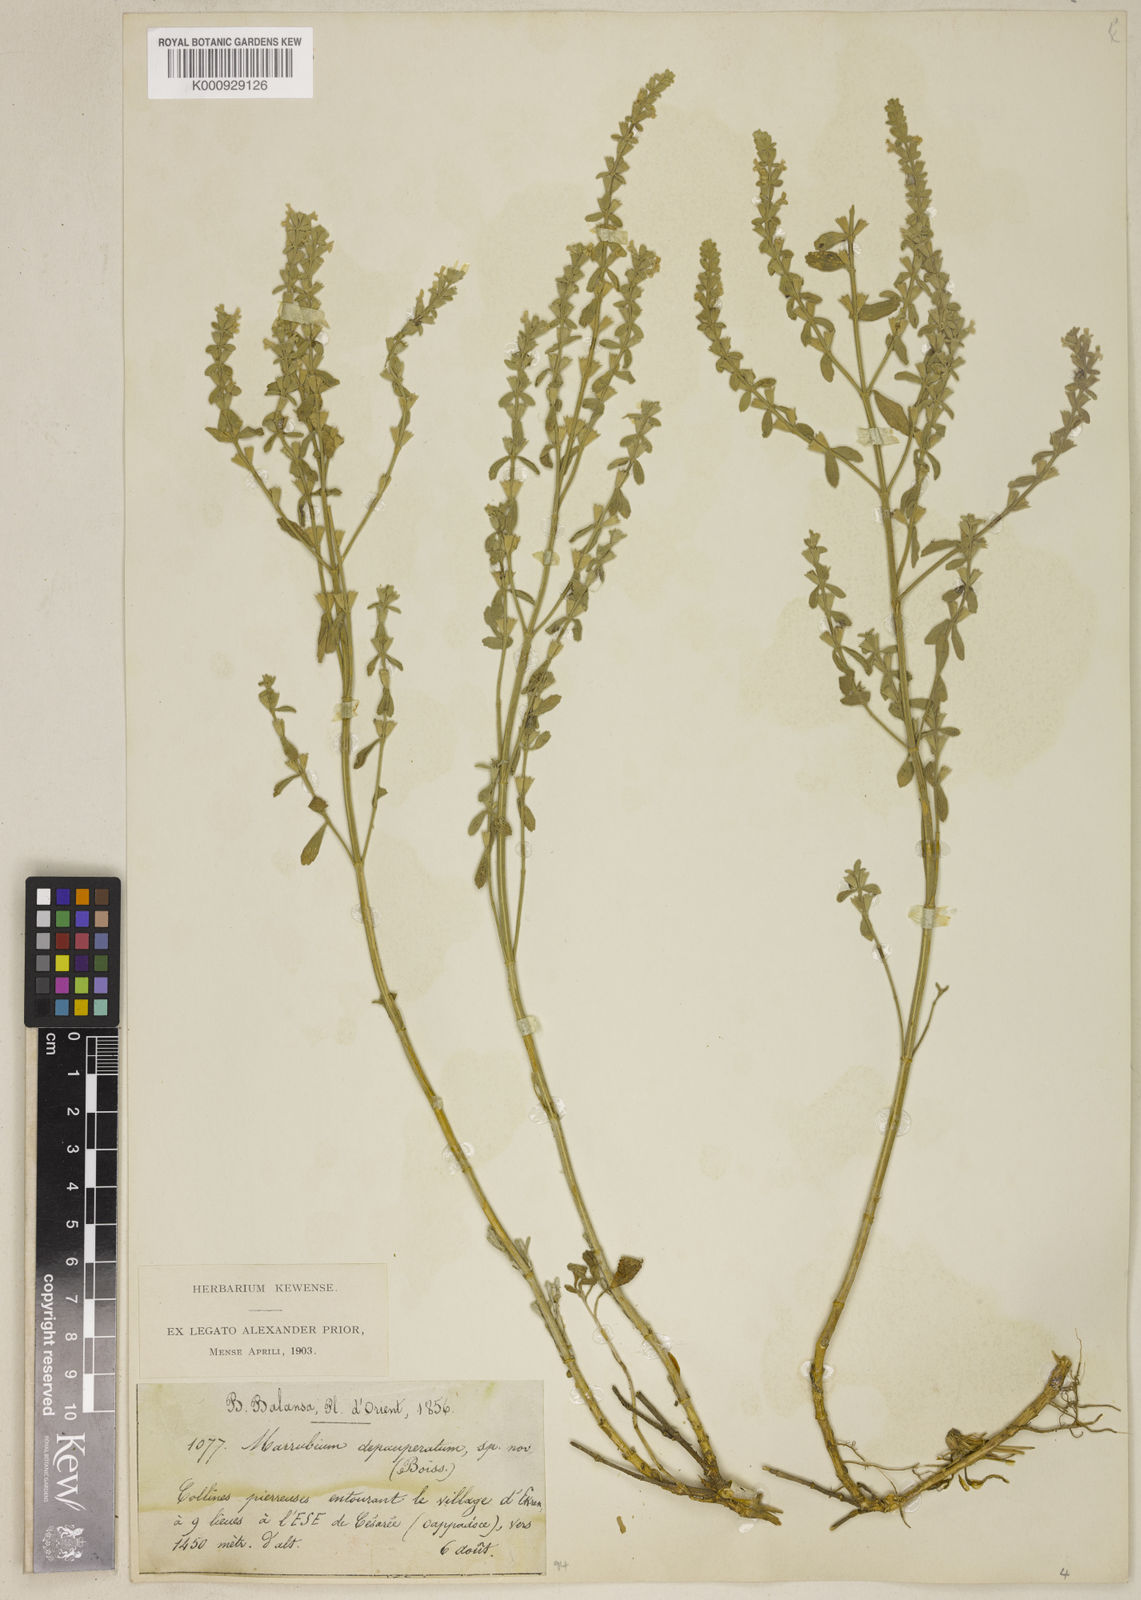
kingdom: Plantae
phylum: Tracheophyta
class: Magnoliopsida
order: Lamiales
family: Lamiaceae
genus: Marrubium
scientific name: Marrubium depauperatum
